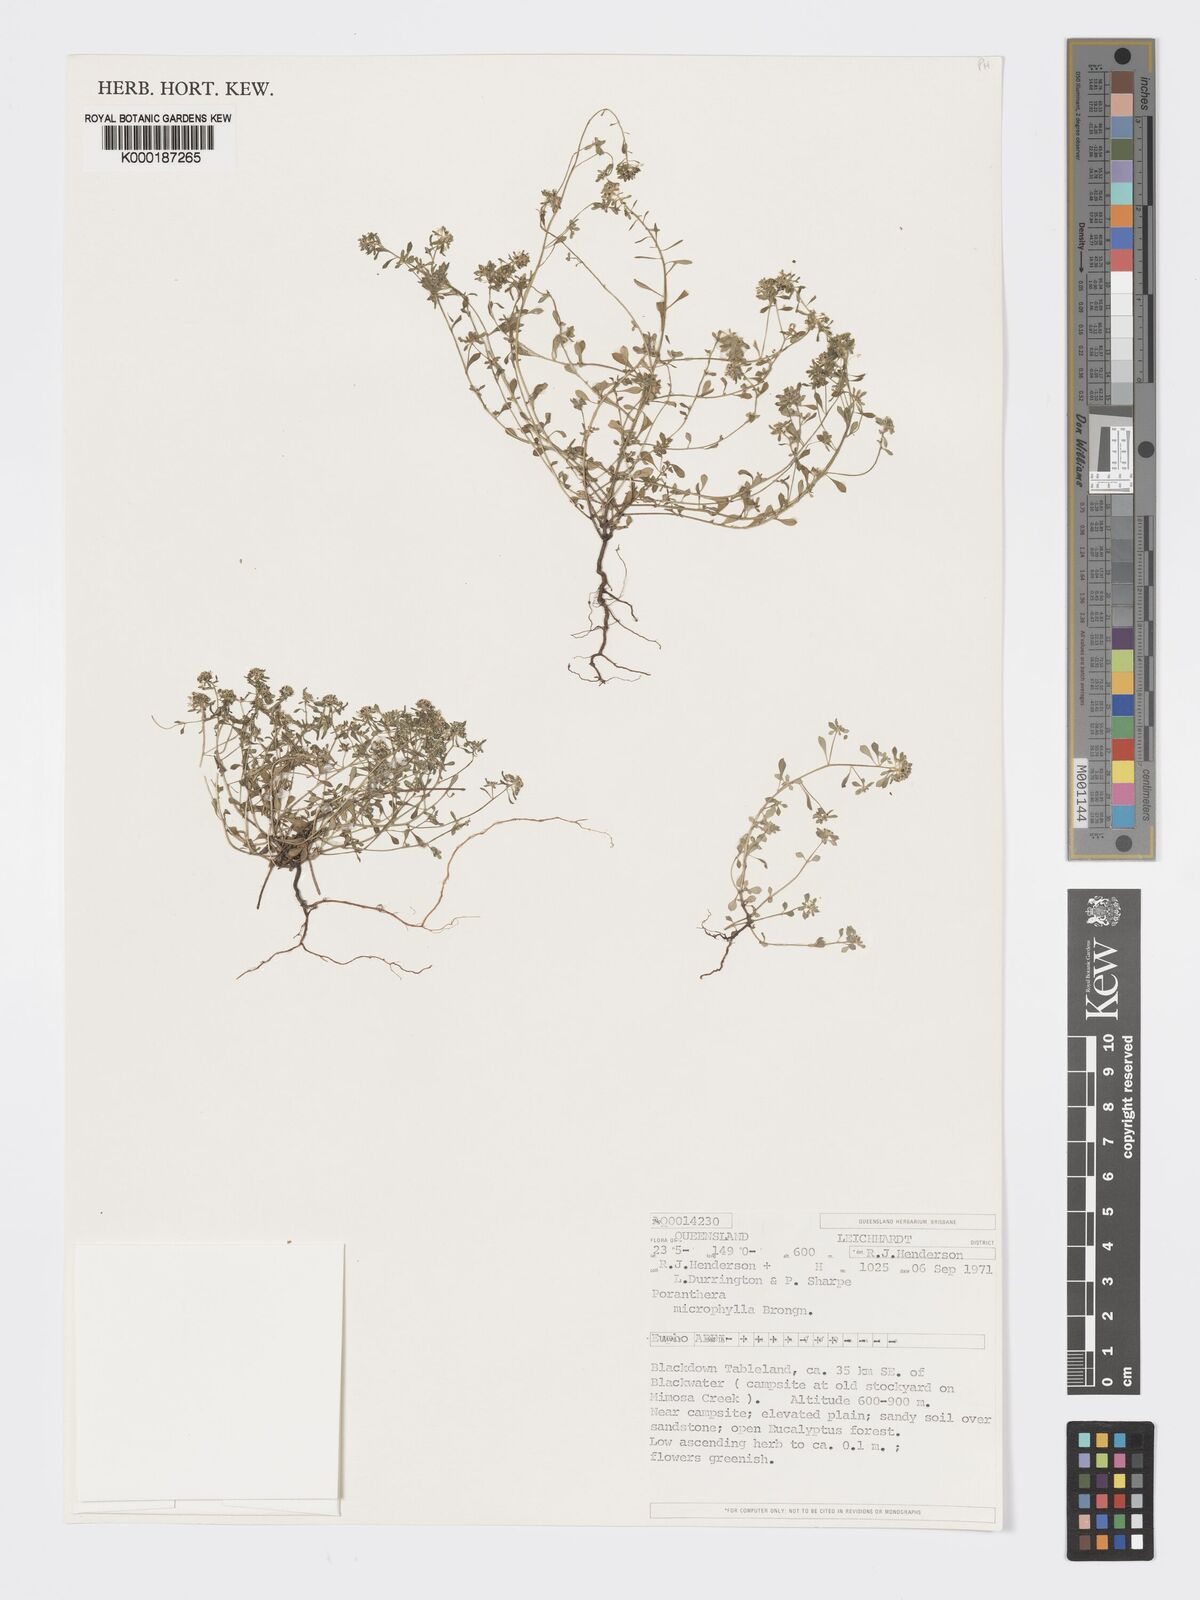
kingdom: Plantae
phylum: Tracheophyta
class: Magnoliopsida
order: Malpighiales
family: Phyllanthaceae
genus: Poranthera
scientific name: Poranthera microphylla
